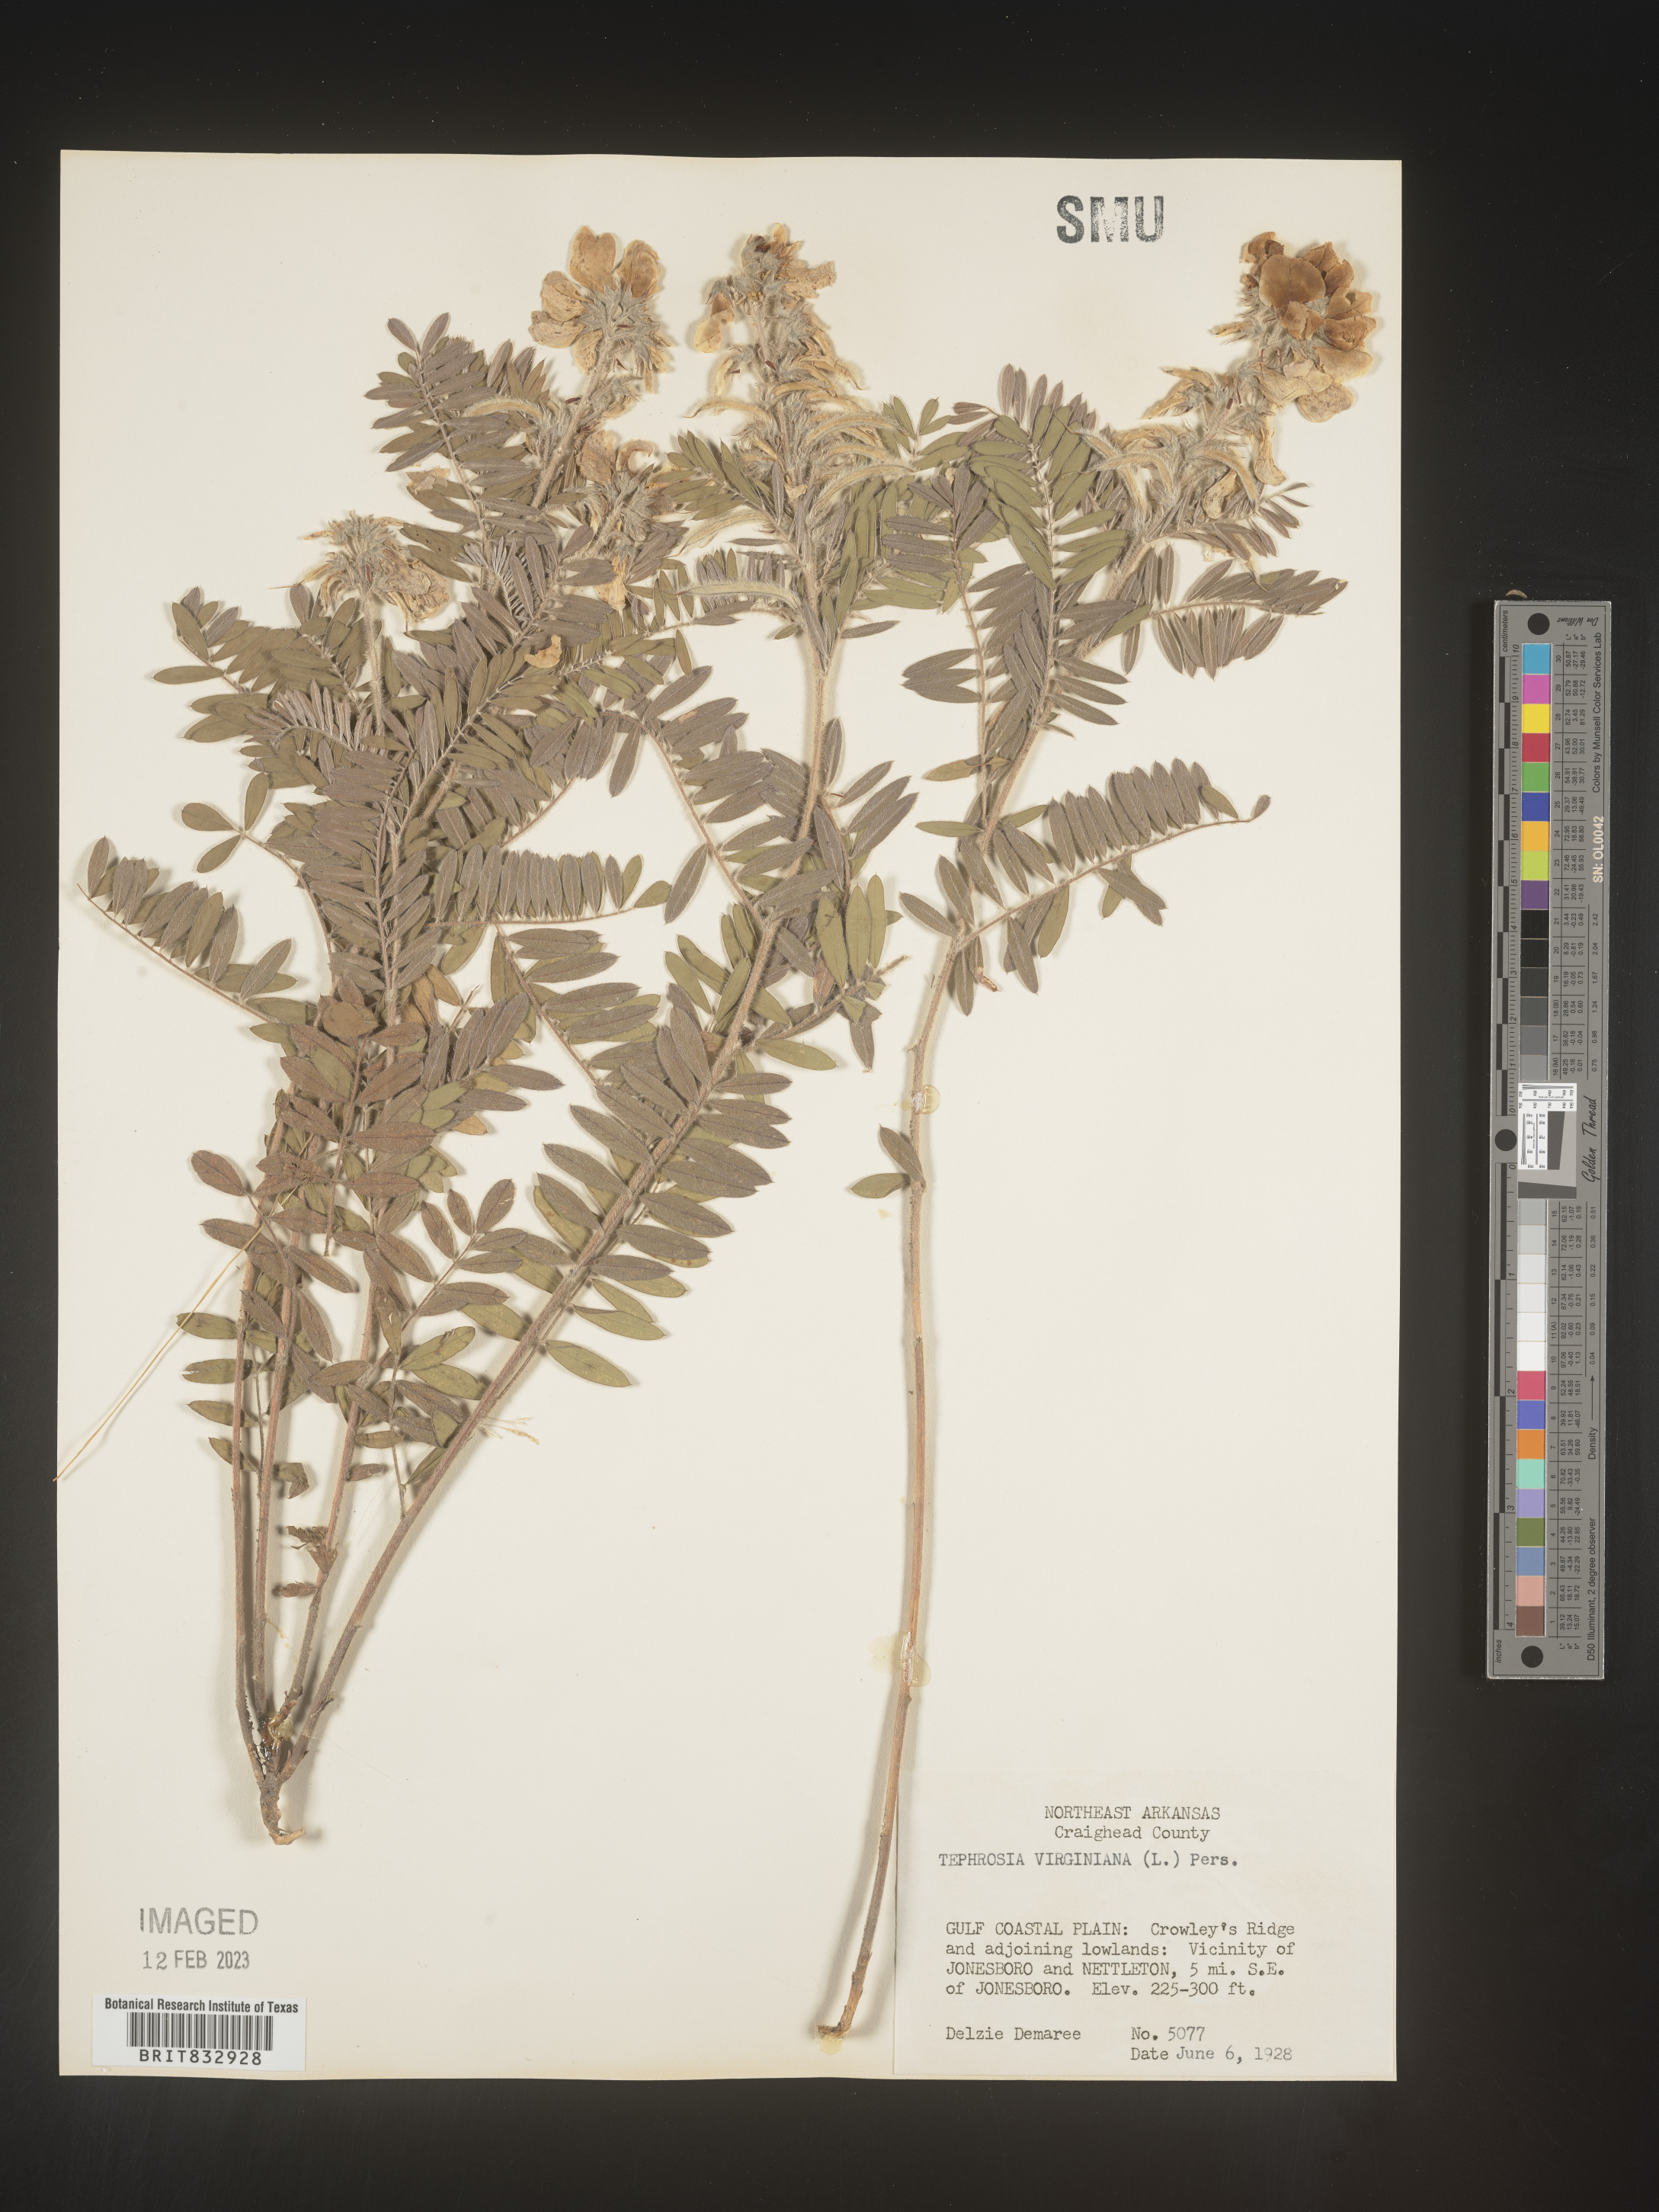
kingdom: Plantae
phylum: Tracheophyta
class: Magnoliopsida
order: Fabales
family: Fabaceae
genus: Tephrosia
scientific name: Tephrosia virginiana
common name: Rabbit-pea
